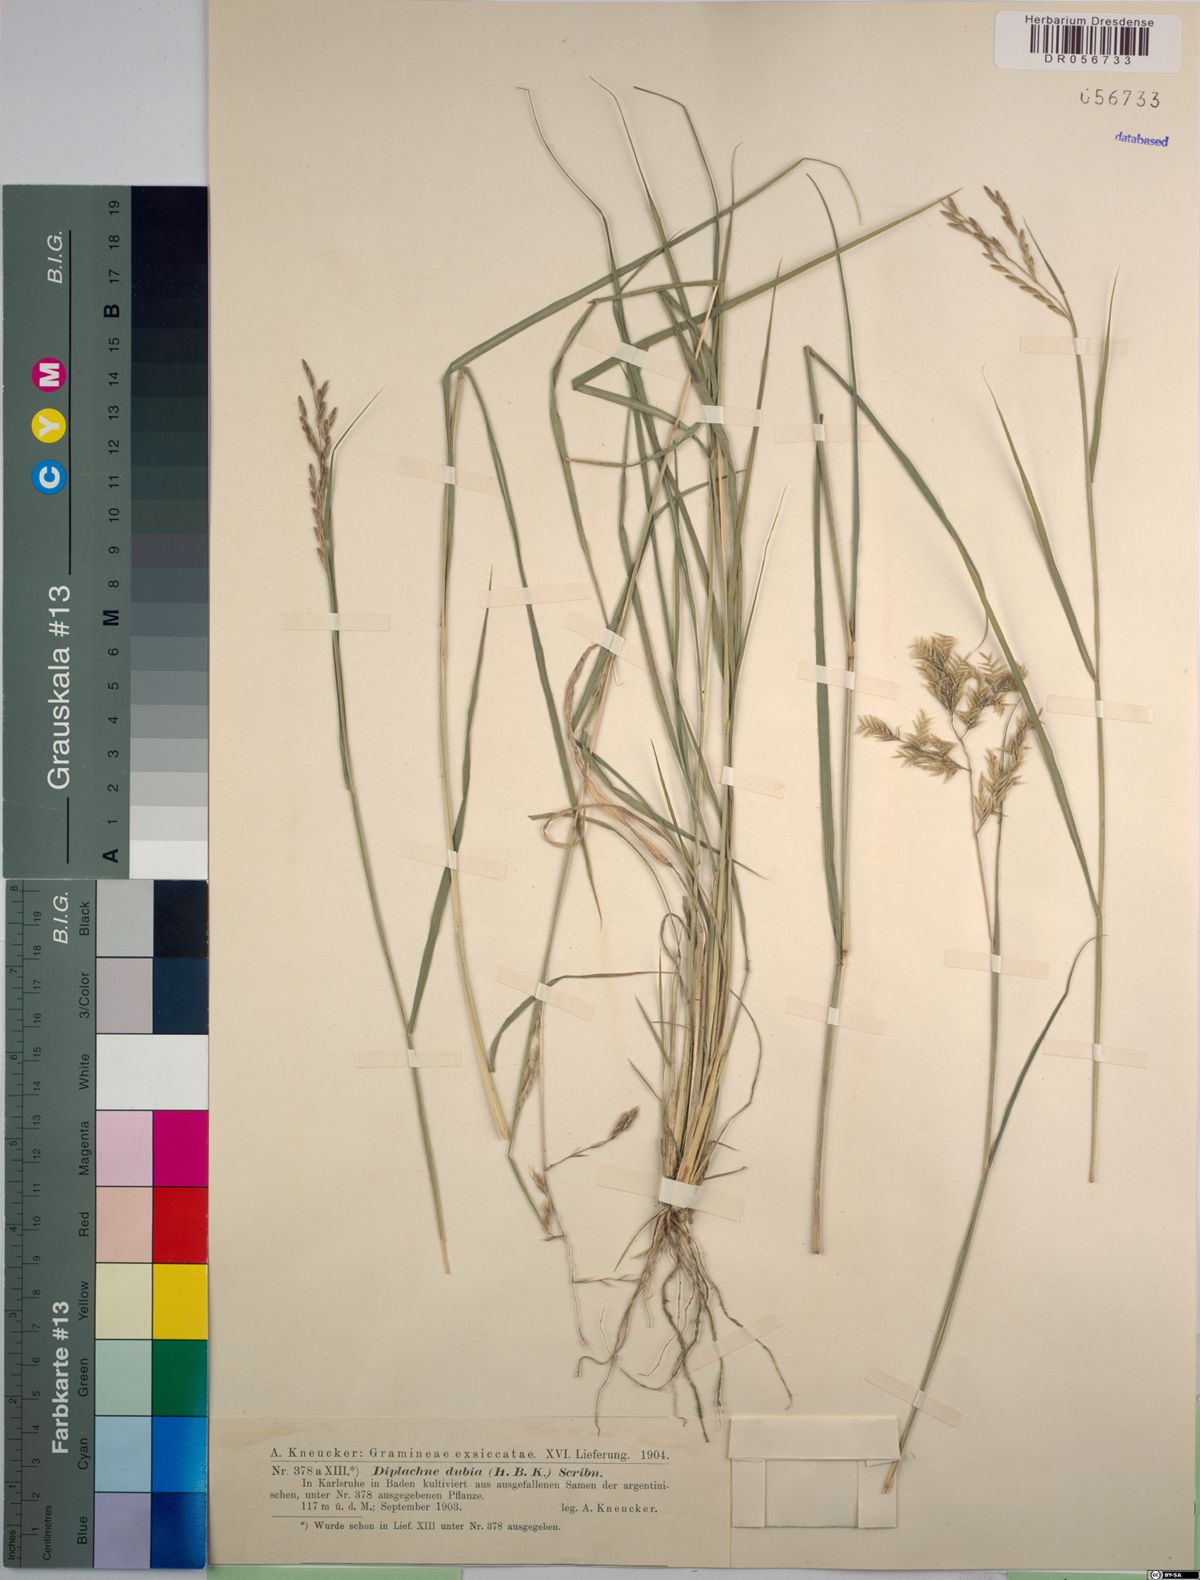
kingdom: Plantae
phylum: Tracheophyta
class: Liliopsida
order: Poales
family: Poaceae
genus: Disakisperma
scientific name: Disakisperma dubium
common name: Green sprangletop
